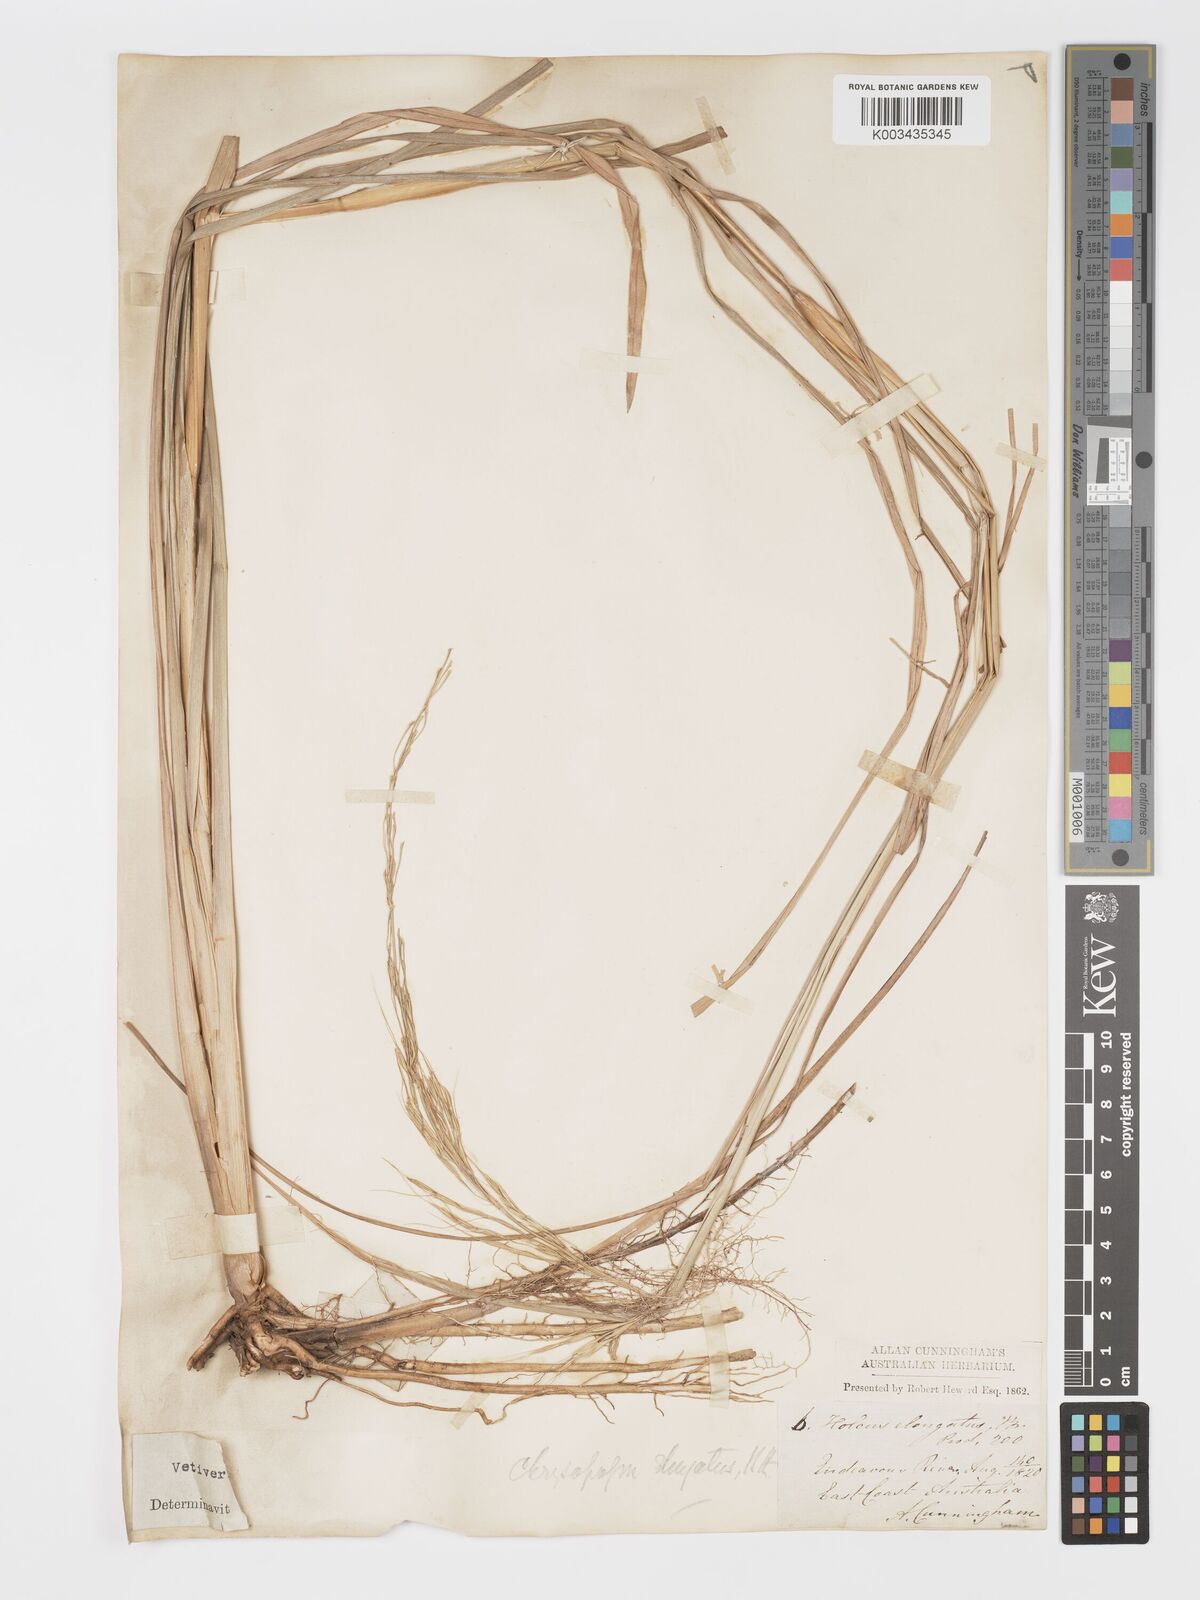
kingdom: Plantae
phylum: Tracheophyta
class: Liliopsida
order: Poales
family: Poaceae
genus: Vetiveria
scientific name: Vetiveria
